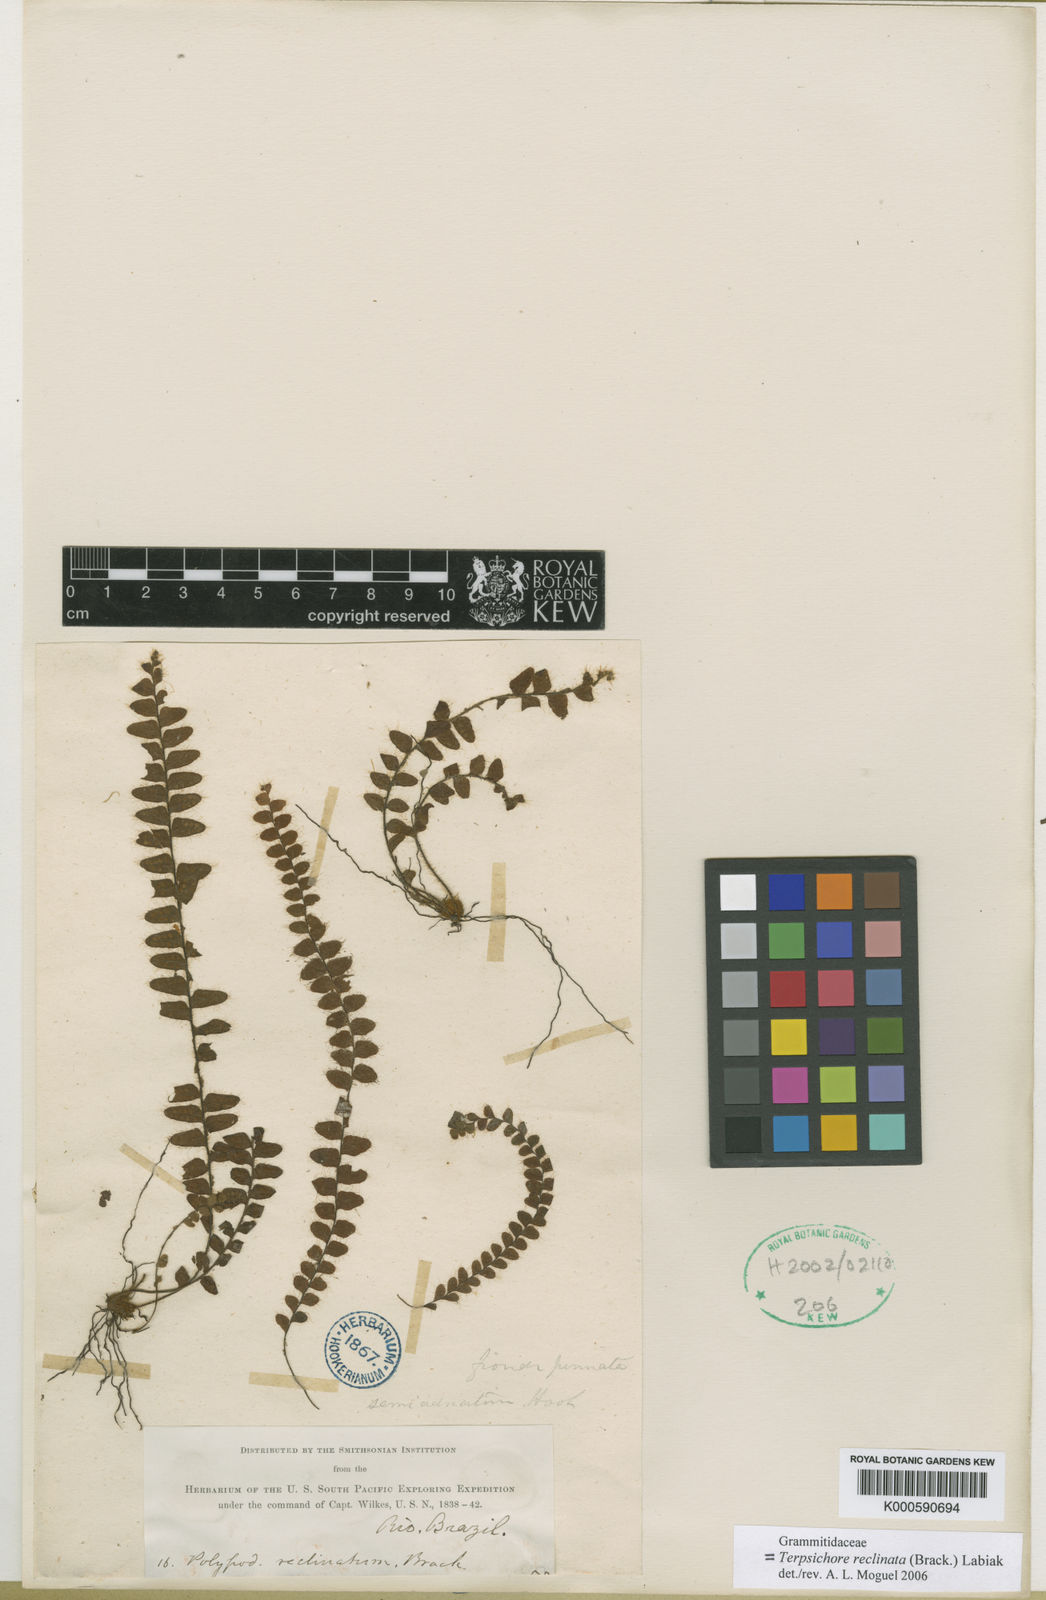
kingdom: Plantae
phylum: Tracheophyta
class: Polypodiopsida
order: Polypodiales
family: Polypodiaceae
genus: Alansmia
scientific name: Alansmia reclinata
